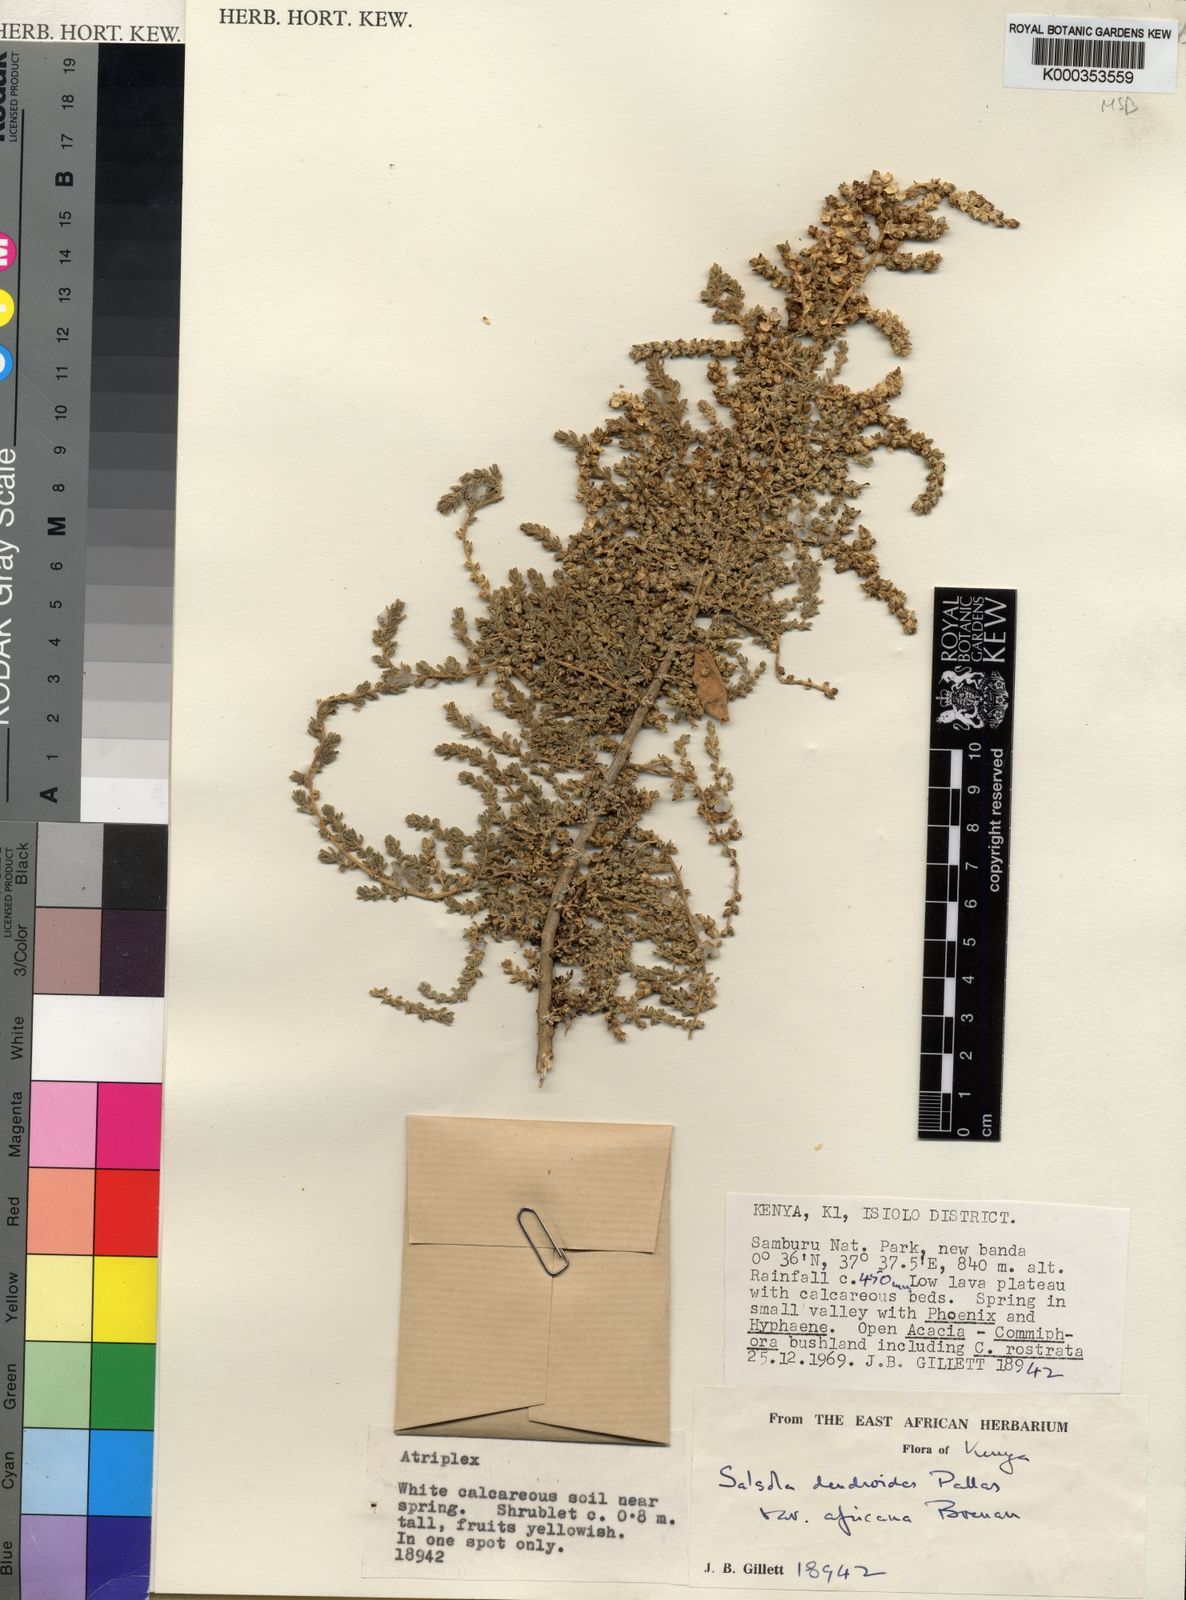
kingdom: Plantae
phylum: Tracheophyta
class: Magnoliopsida
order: Caryophyllales
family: Amaranthaceae
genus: Caroxylon
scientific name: Caroxylon africanum
